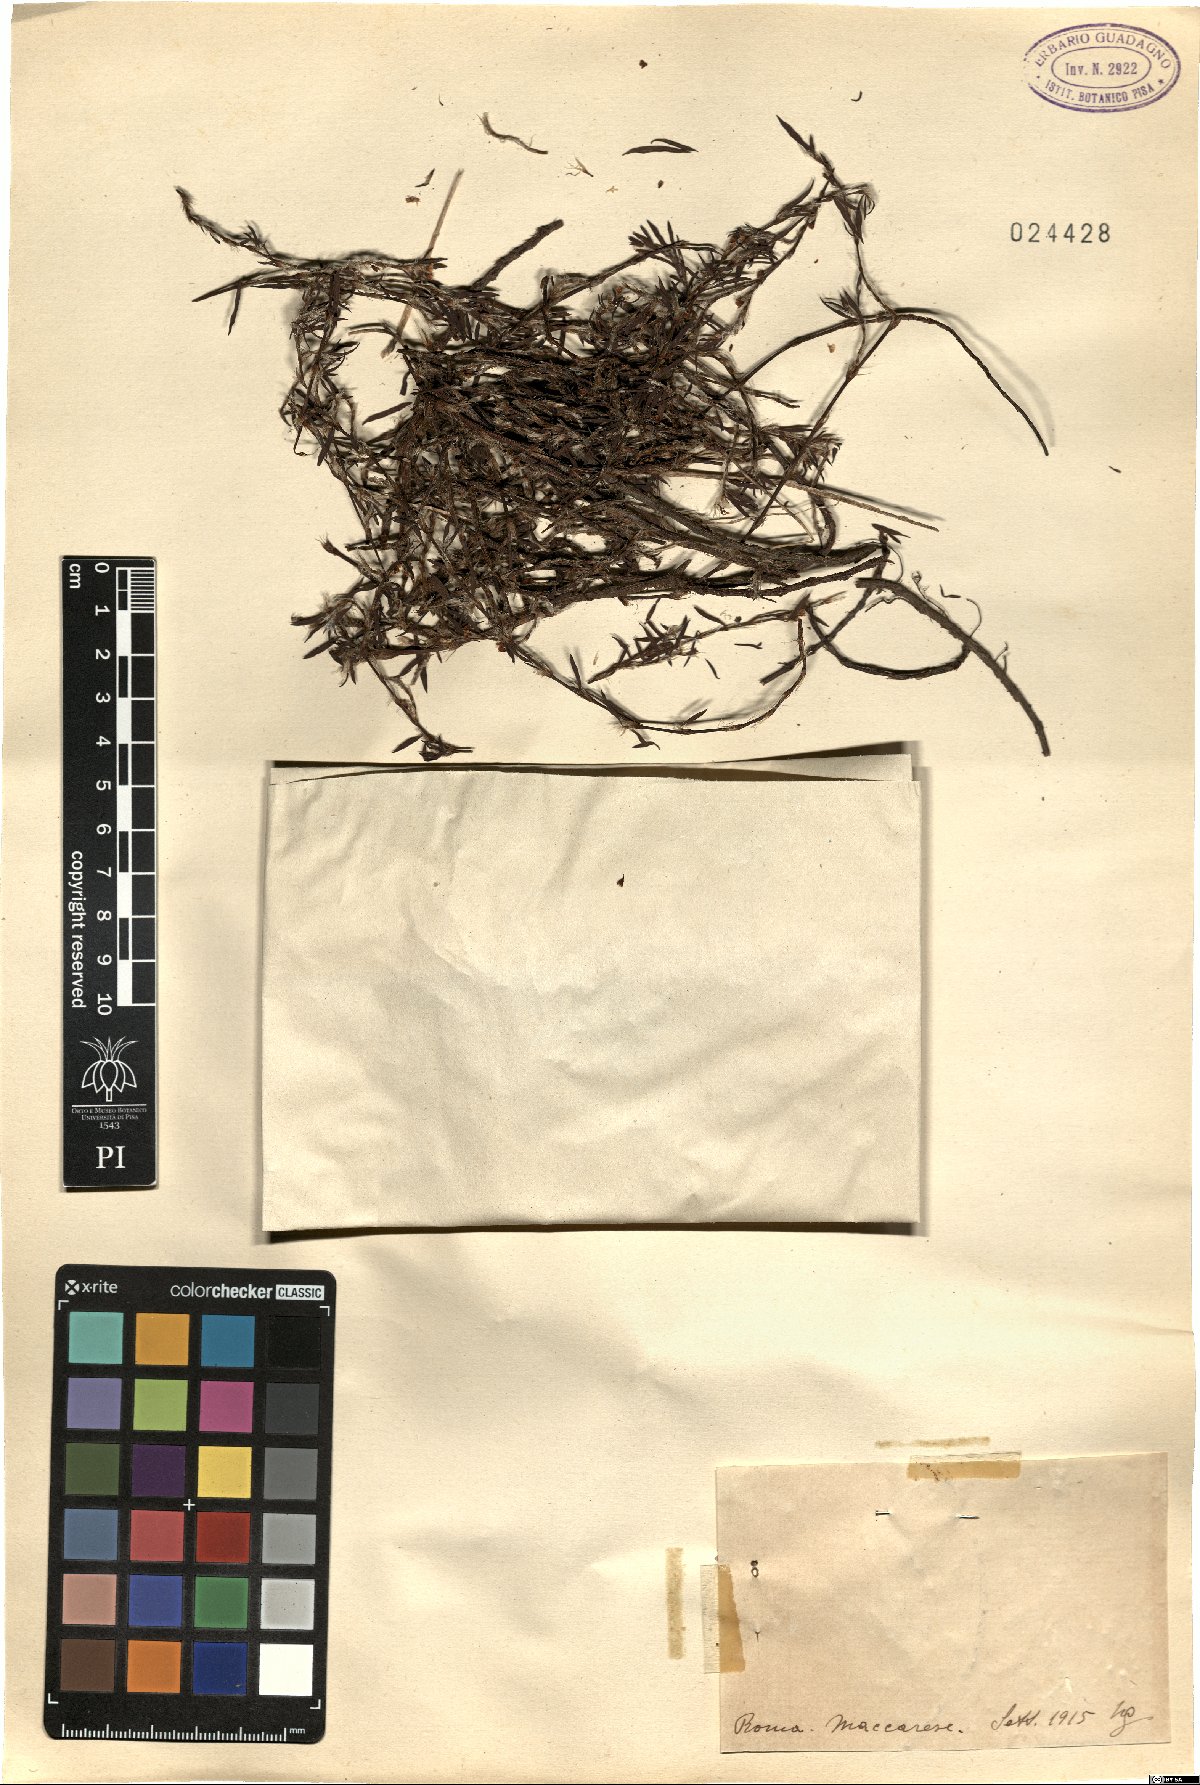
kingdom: Plantae
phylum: Tracheophyta
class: Magnoliopsida
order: Caryophyllales
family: Polygonaceae
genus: Polygonum
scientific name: Polygonum
